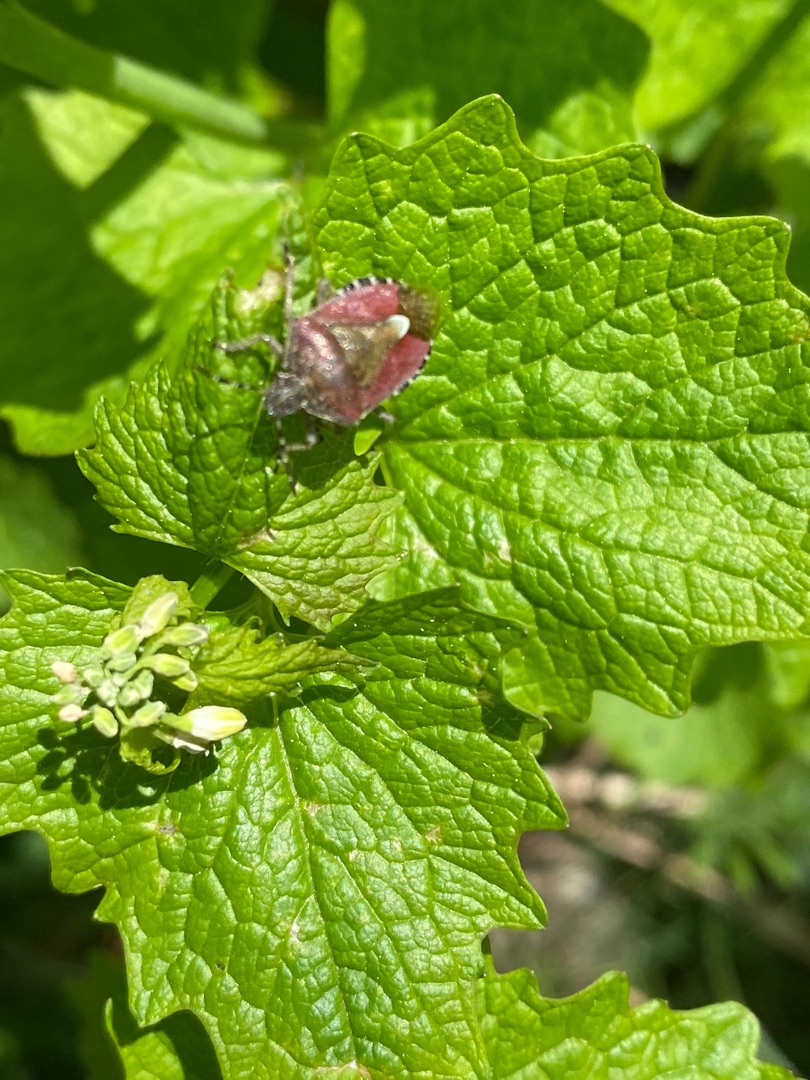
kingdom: Animalia
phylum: Arthropoda
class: Insecta
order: Hemiptera
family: Pentatomidae
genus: Dolycoris
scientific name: Dolycoris baccarum
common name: Almindelig bærtæge
